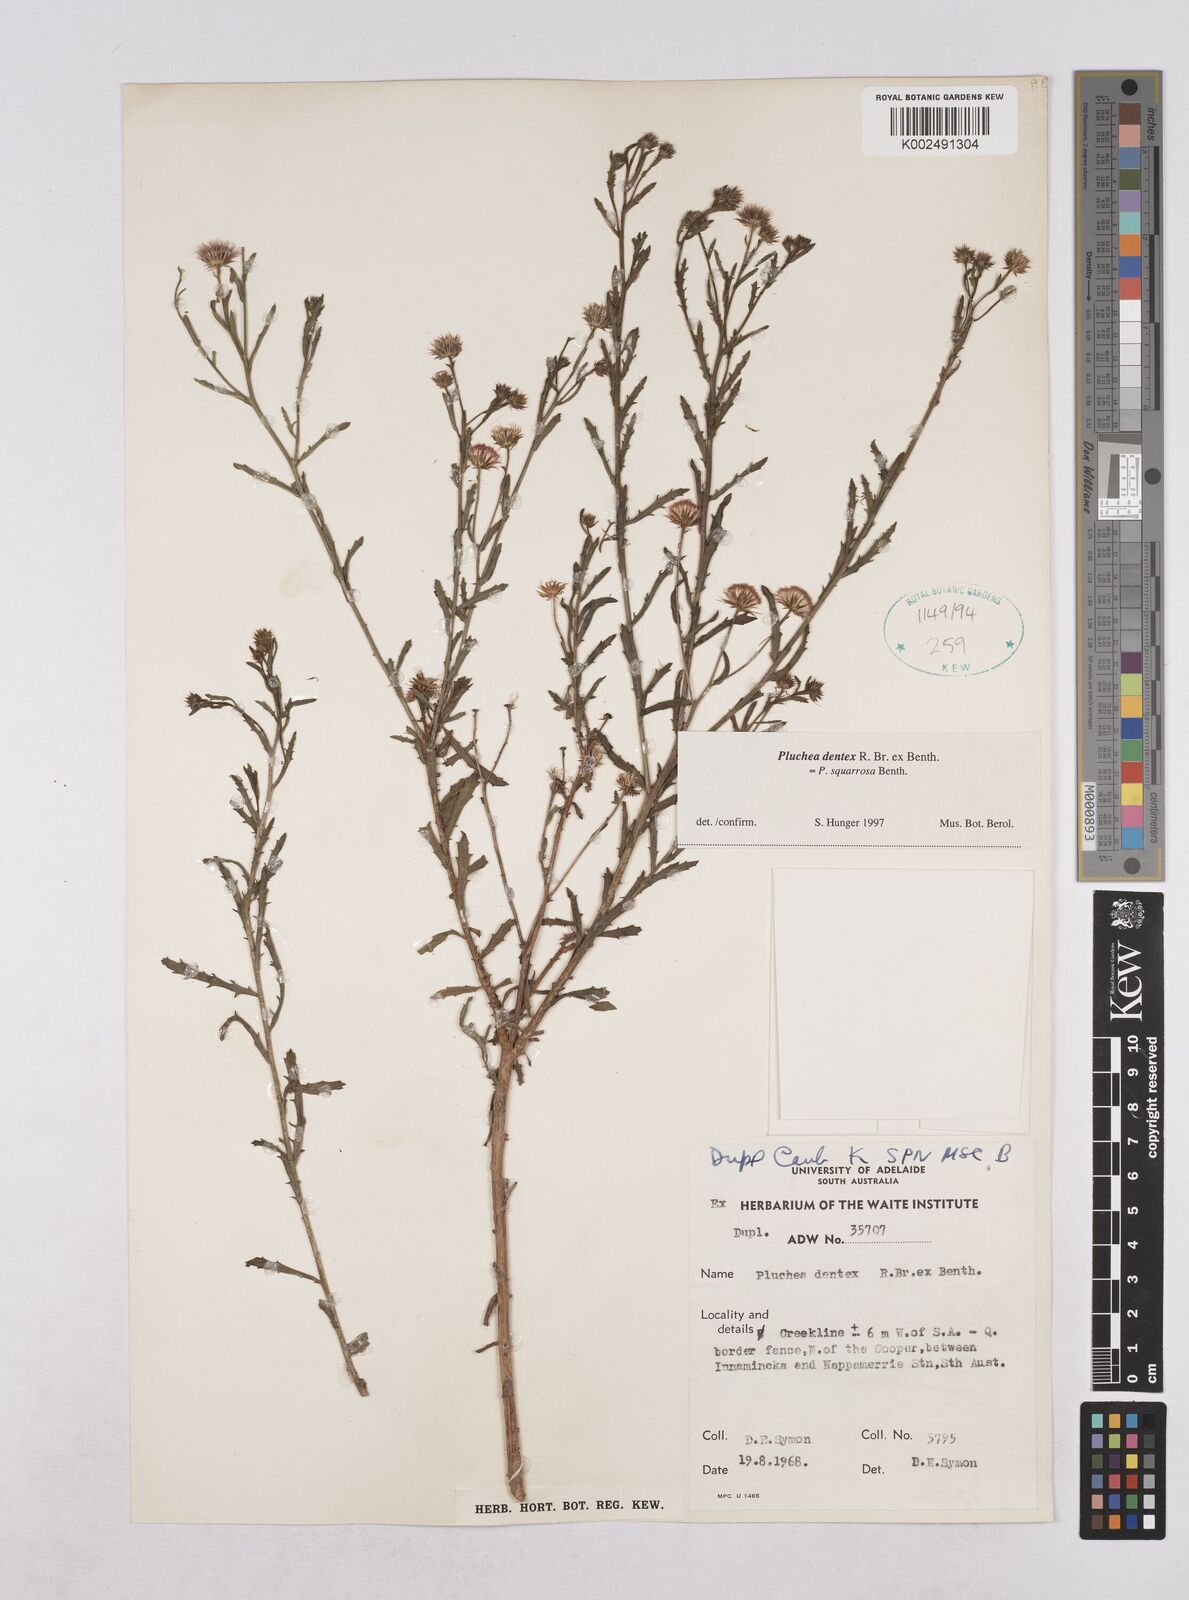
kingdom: Plantae
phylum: Tracheophyta
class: Magnoliopsida
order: Asterales
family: Asteraceae
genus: Pluchea
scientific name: Pluchea dentex
